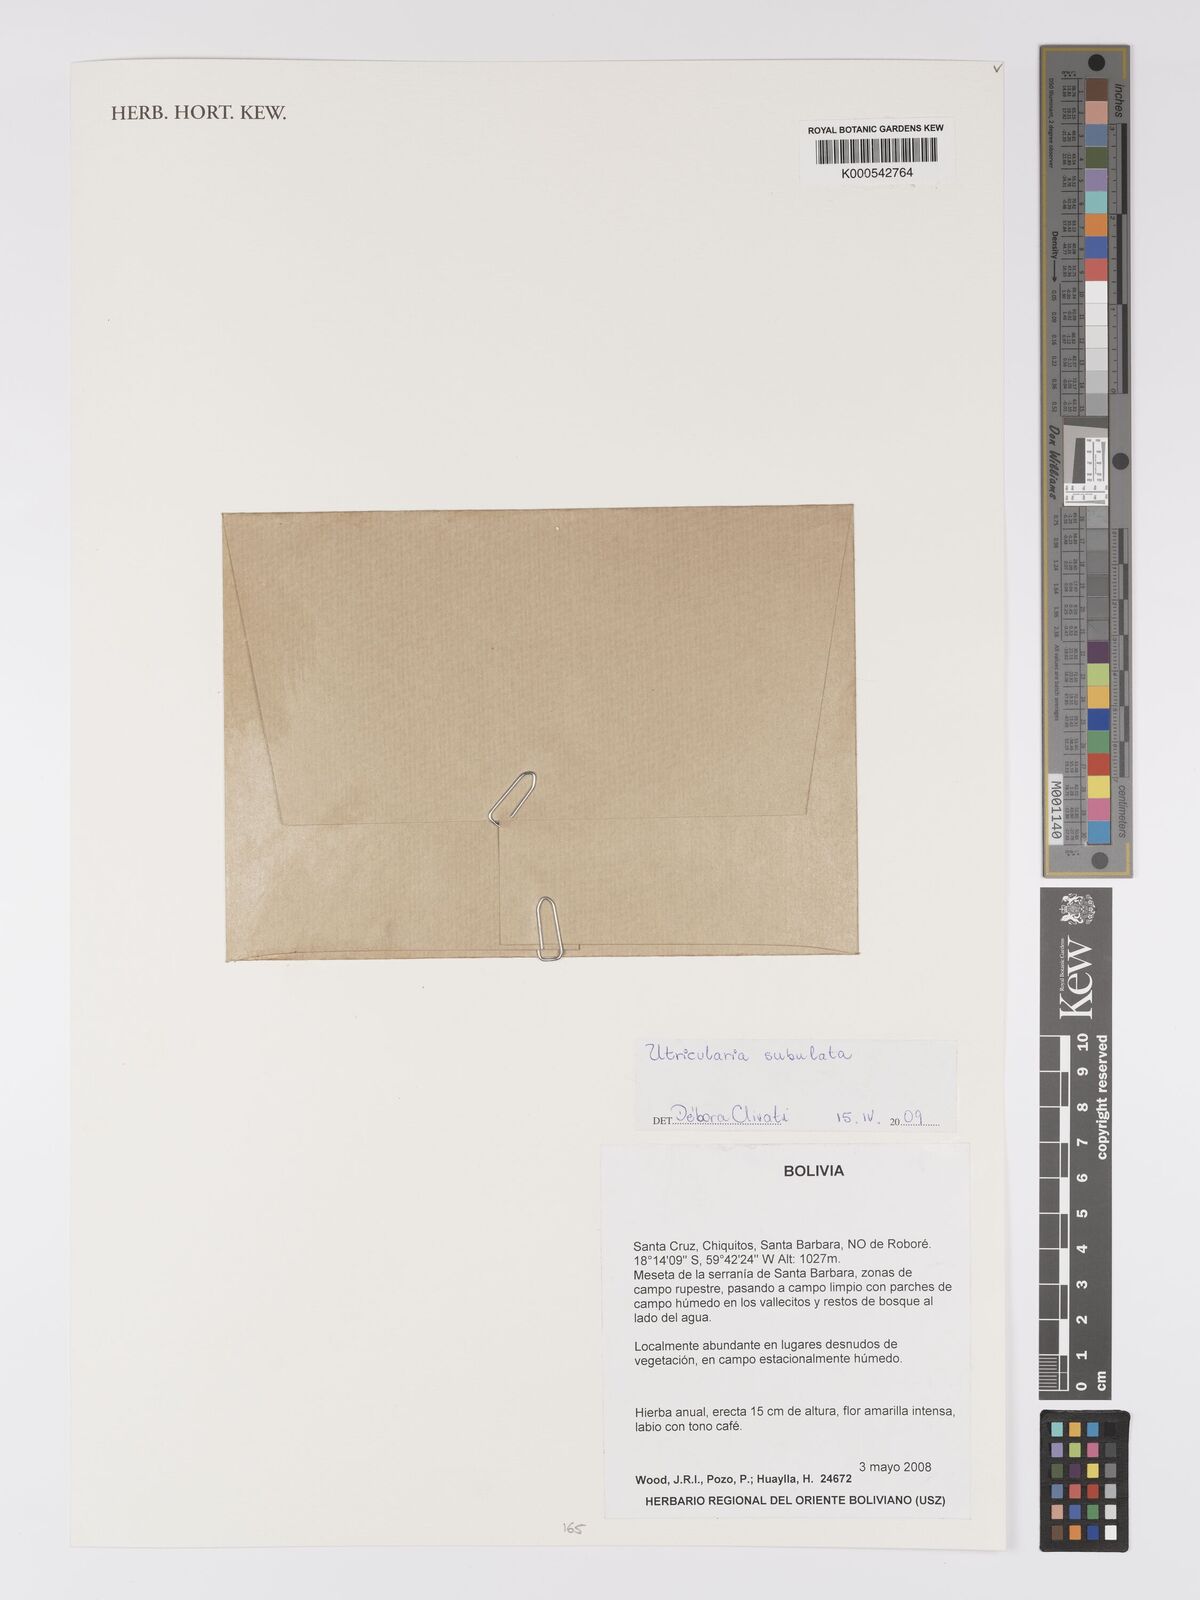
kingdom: Plantae
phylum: Tracheophyta
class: Magnoliopsida
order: Lamiales
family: Lentibulariaceae
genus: Utricularia
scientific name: Utricularia subulata
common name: Tiny bladderwort
